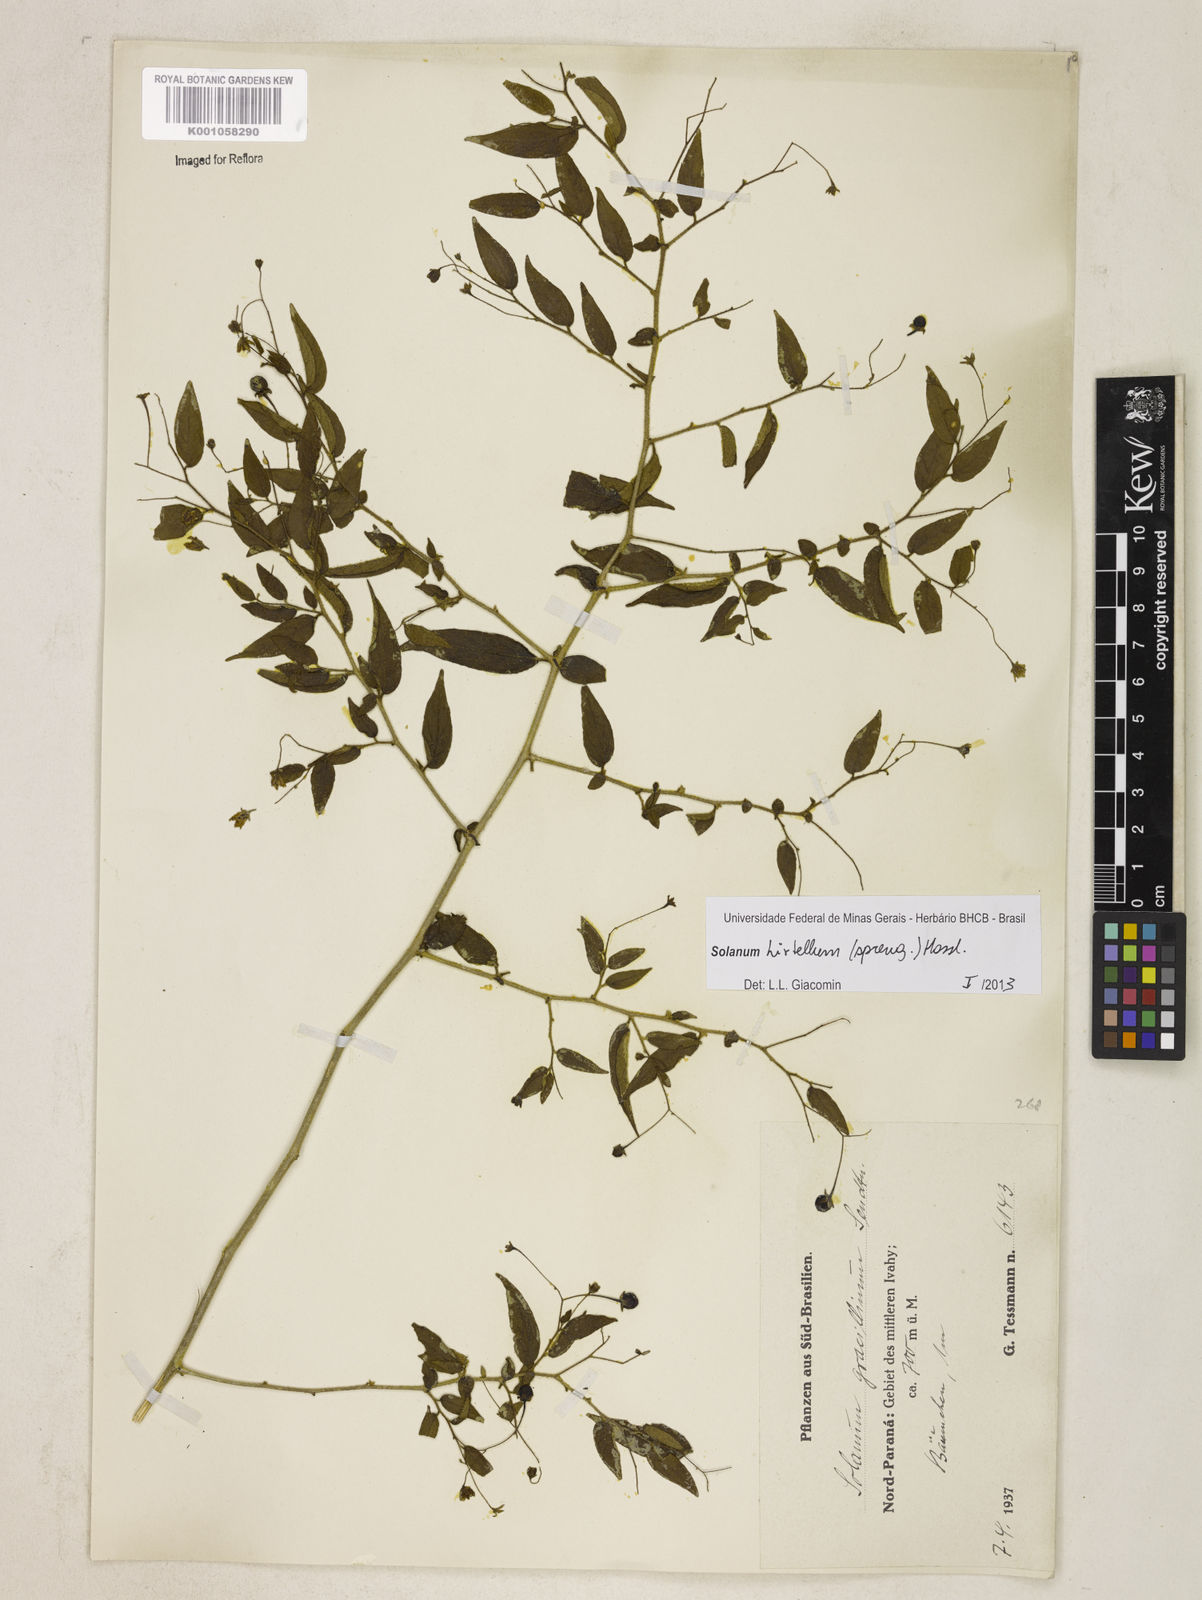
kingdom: Plantae
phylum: Tracheophyta
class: Magnoliopsida
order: Solanales
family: Solanaceae
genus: Solanum
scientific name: Solanum hirtellum
